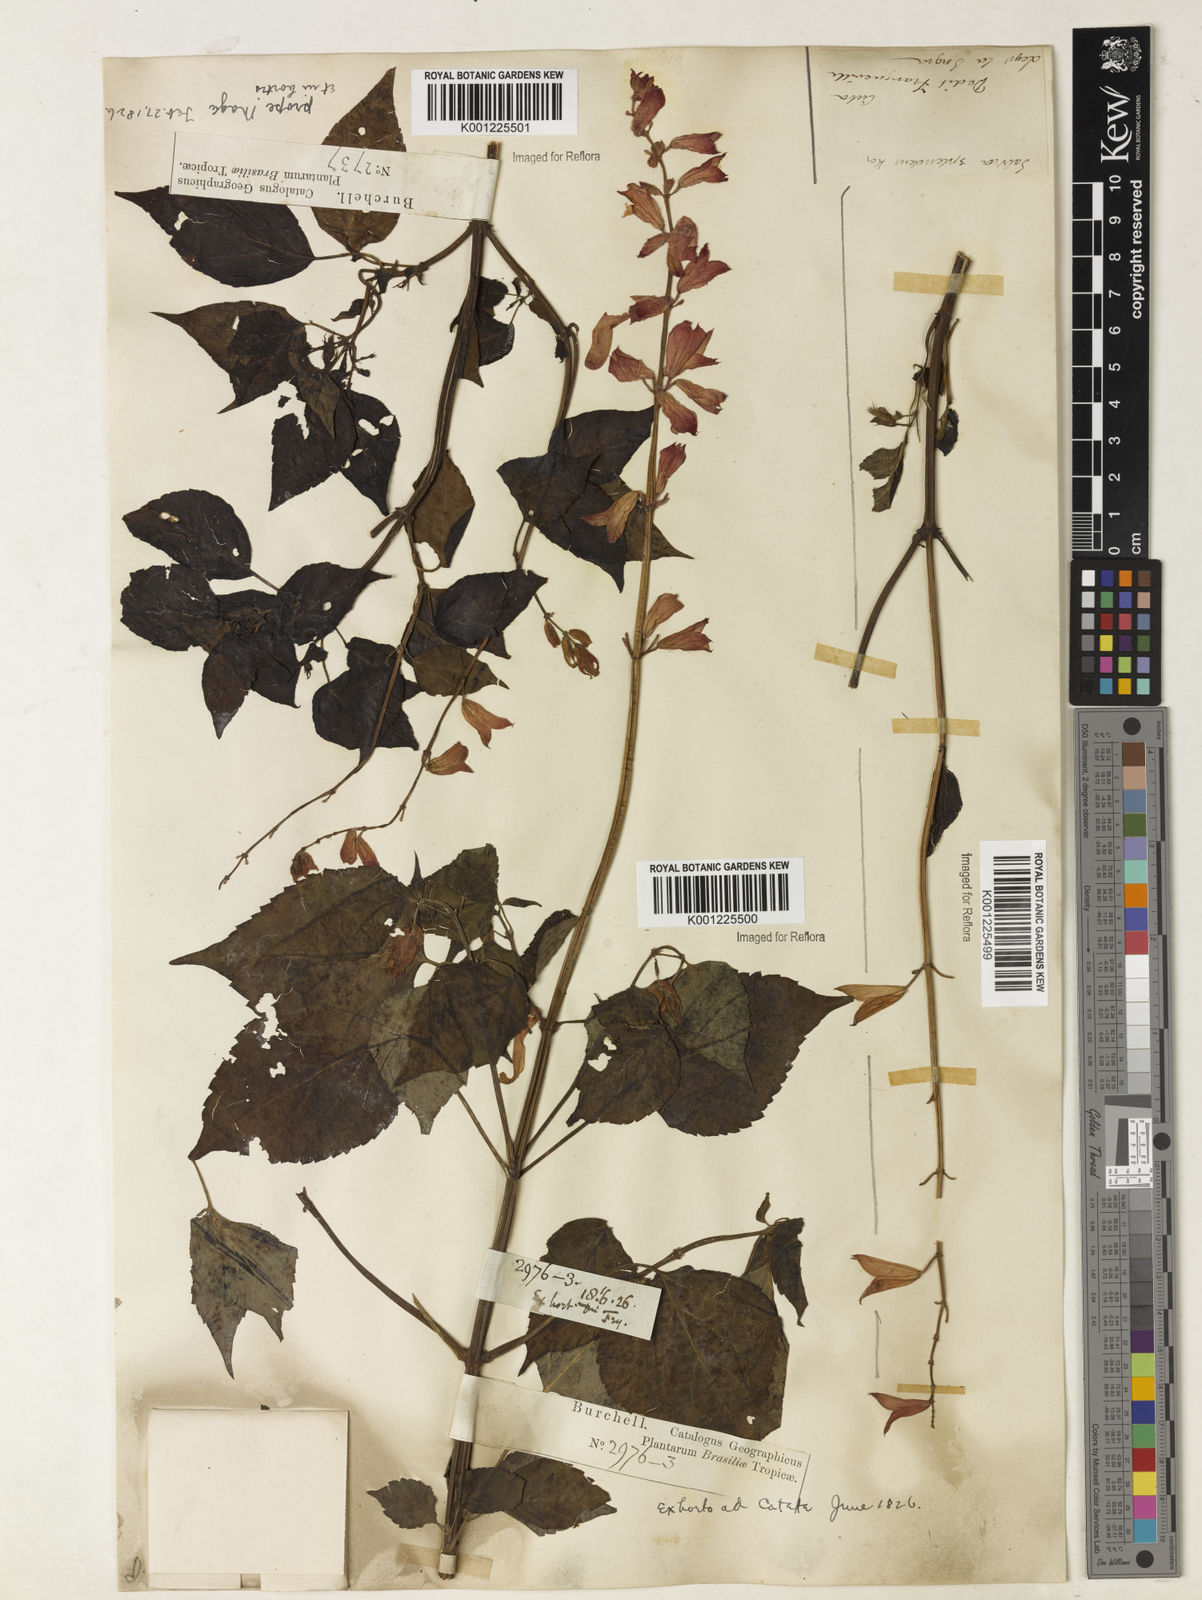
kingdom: Plantae
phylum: Tracheophyta
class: Magnoliopsida
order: Lamiales
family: Lamiaceae
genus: Salvia
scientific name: Salvia
